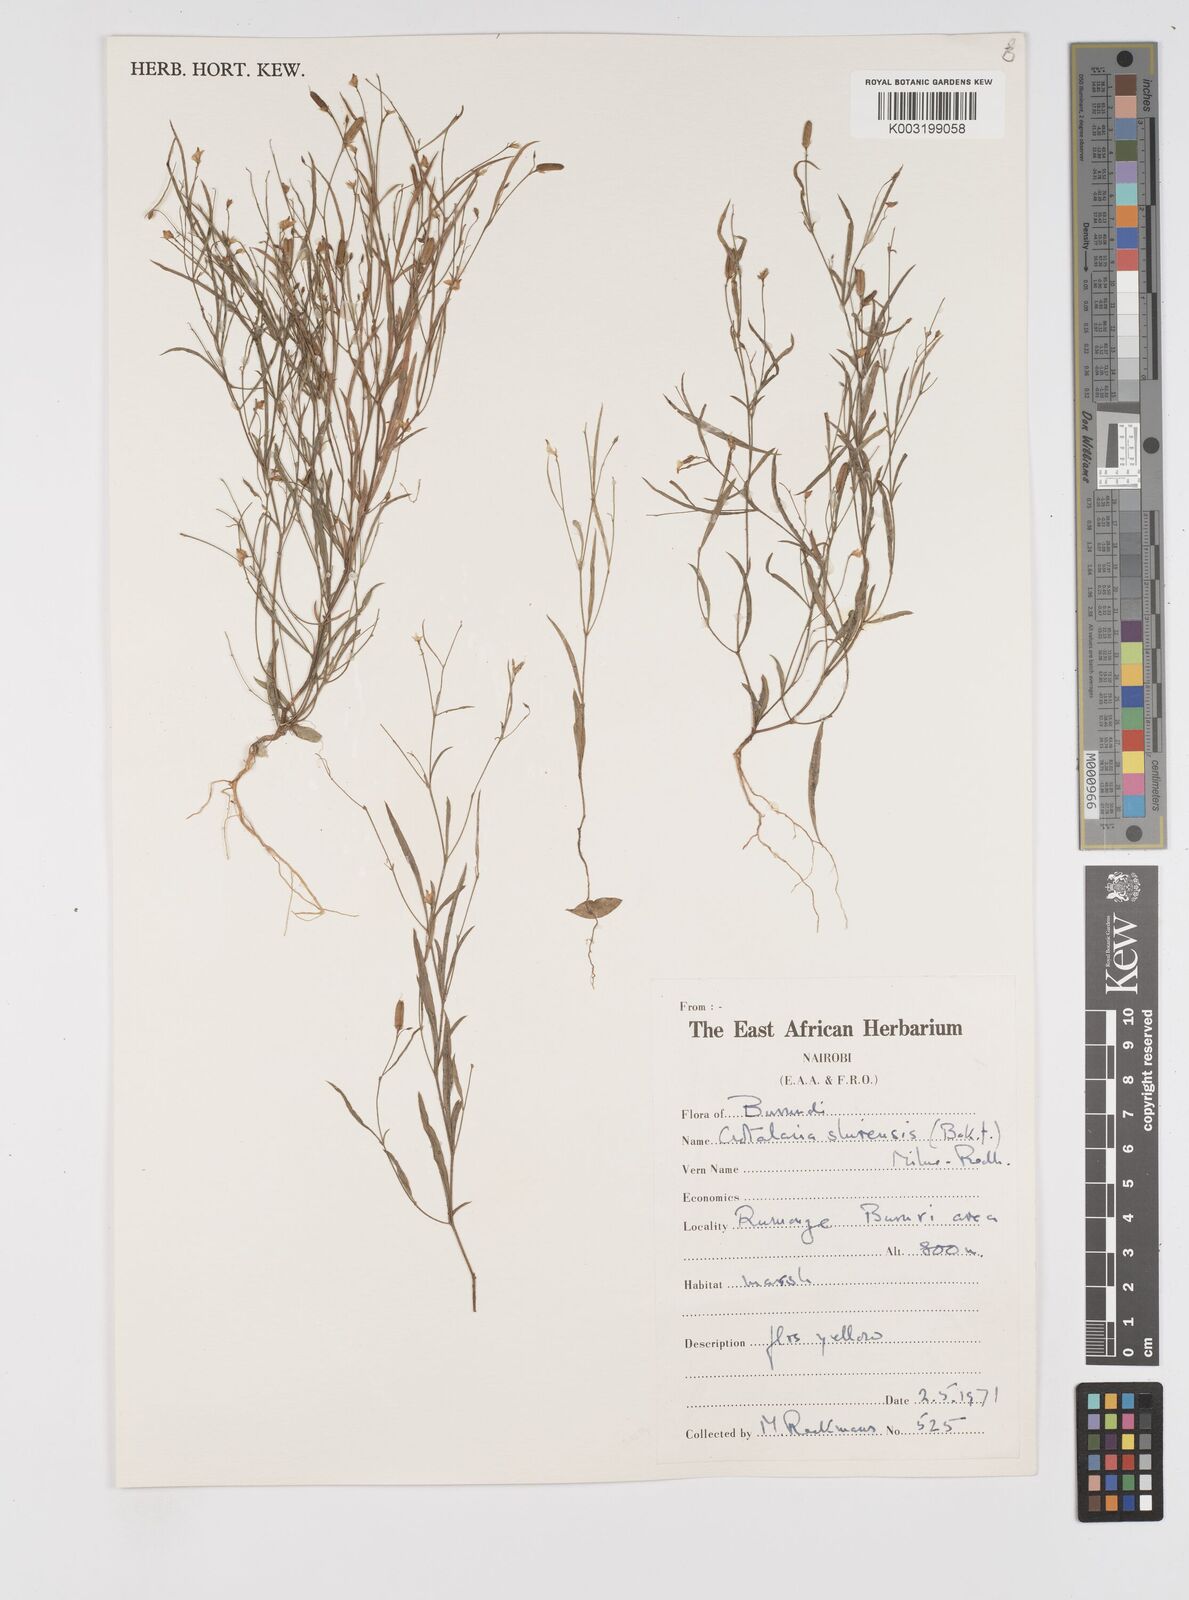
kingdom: Plantae
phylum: Tracheophyta
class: Magnoliopsida
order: Fabales
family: Fabaceae
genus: Crotalaria
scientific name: Crotalaria shirensis
